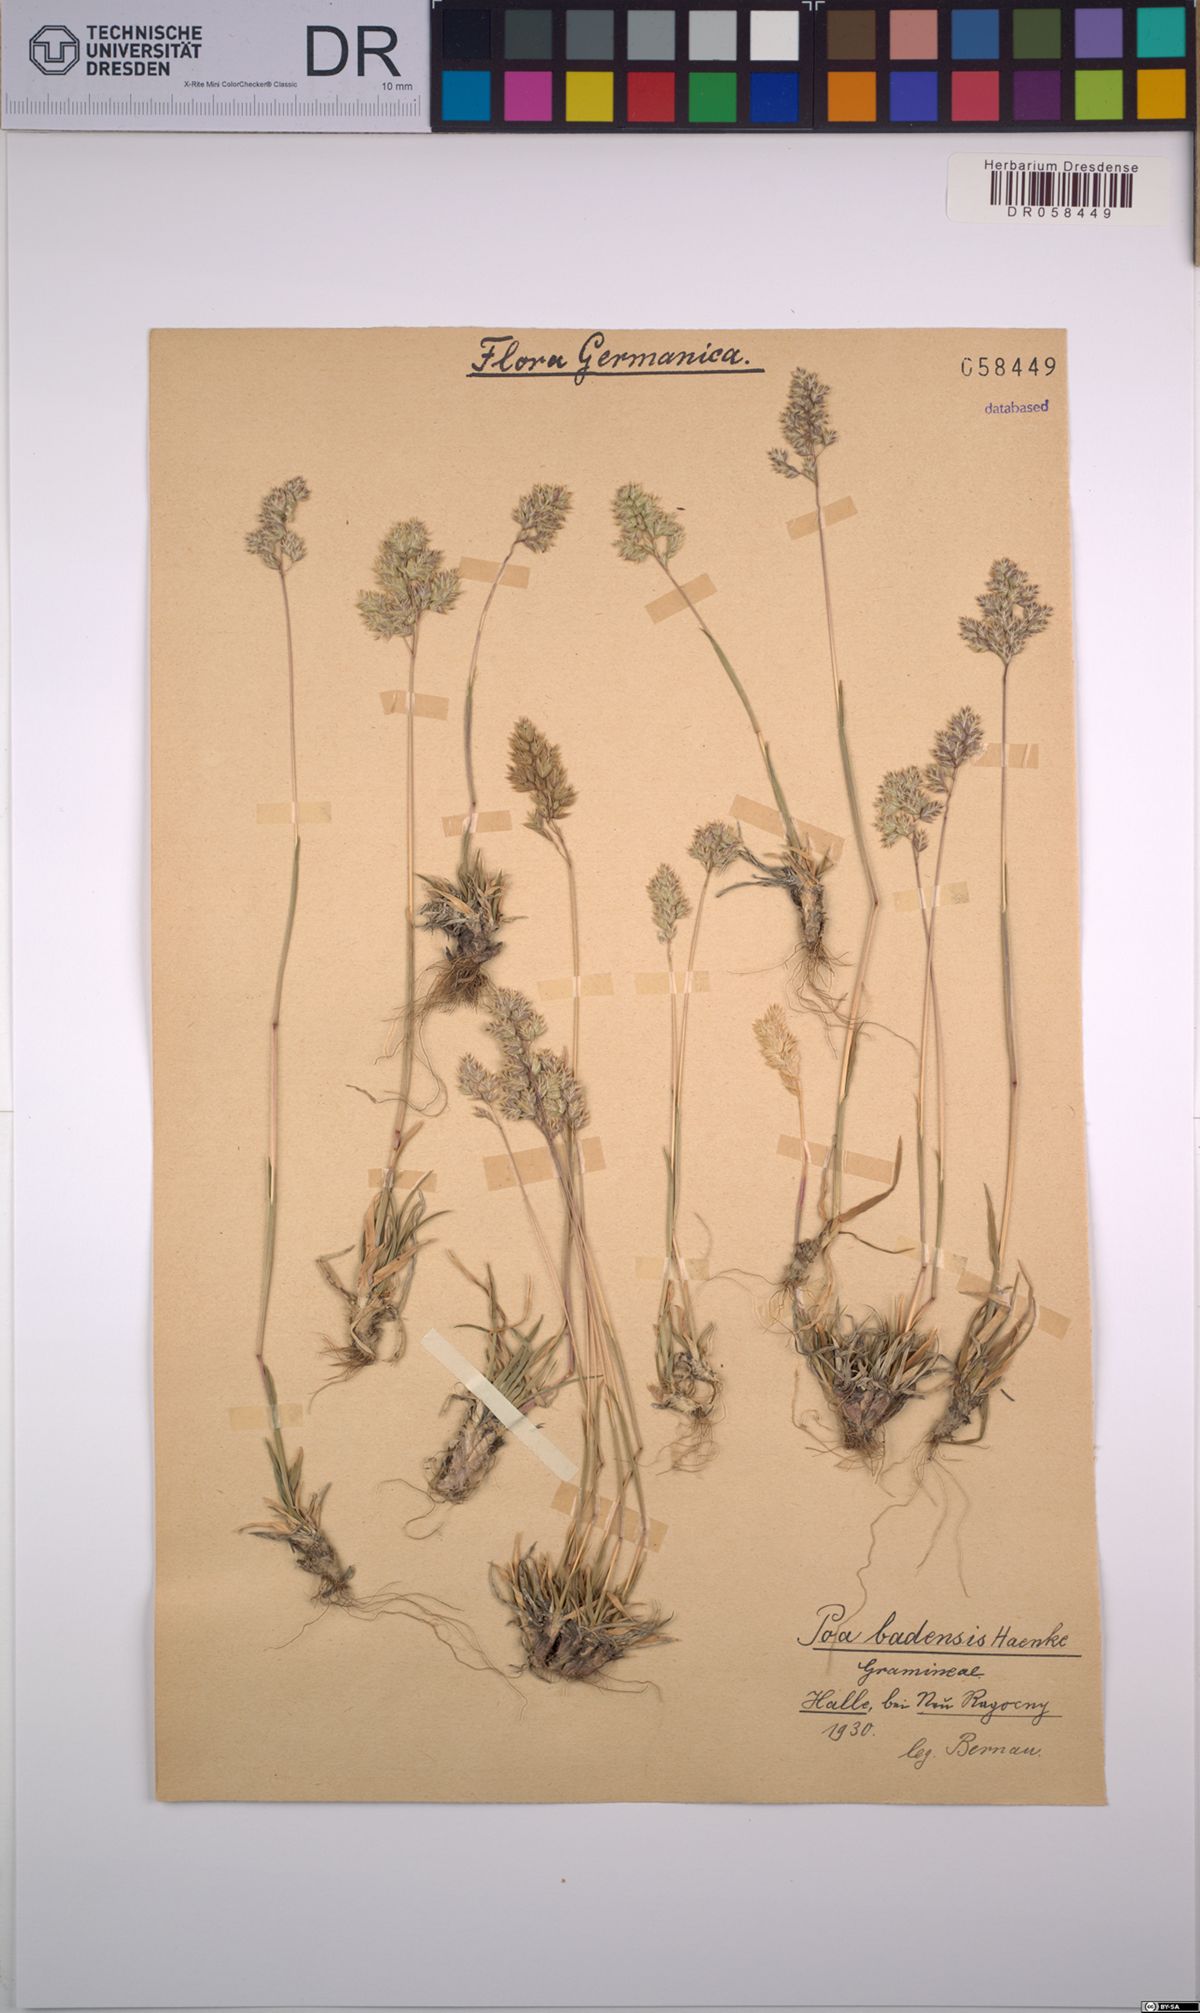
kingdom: Plantae
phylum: Tracheophyta
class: Liliopsida
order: Poales
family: Poaceae
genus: Poa
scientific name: Poa badensis
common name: Baden's bluegrass
